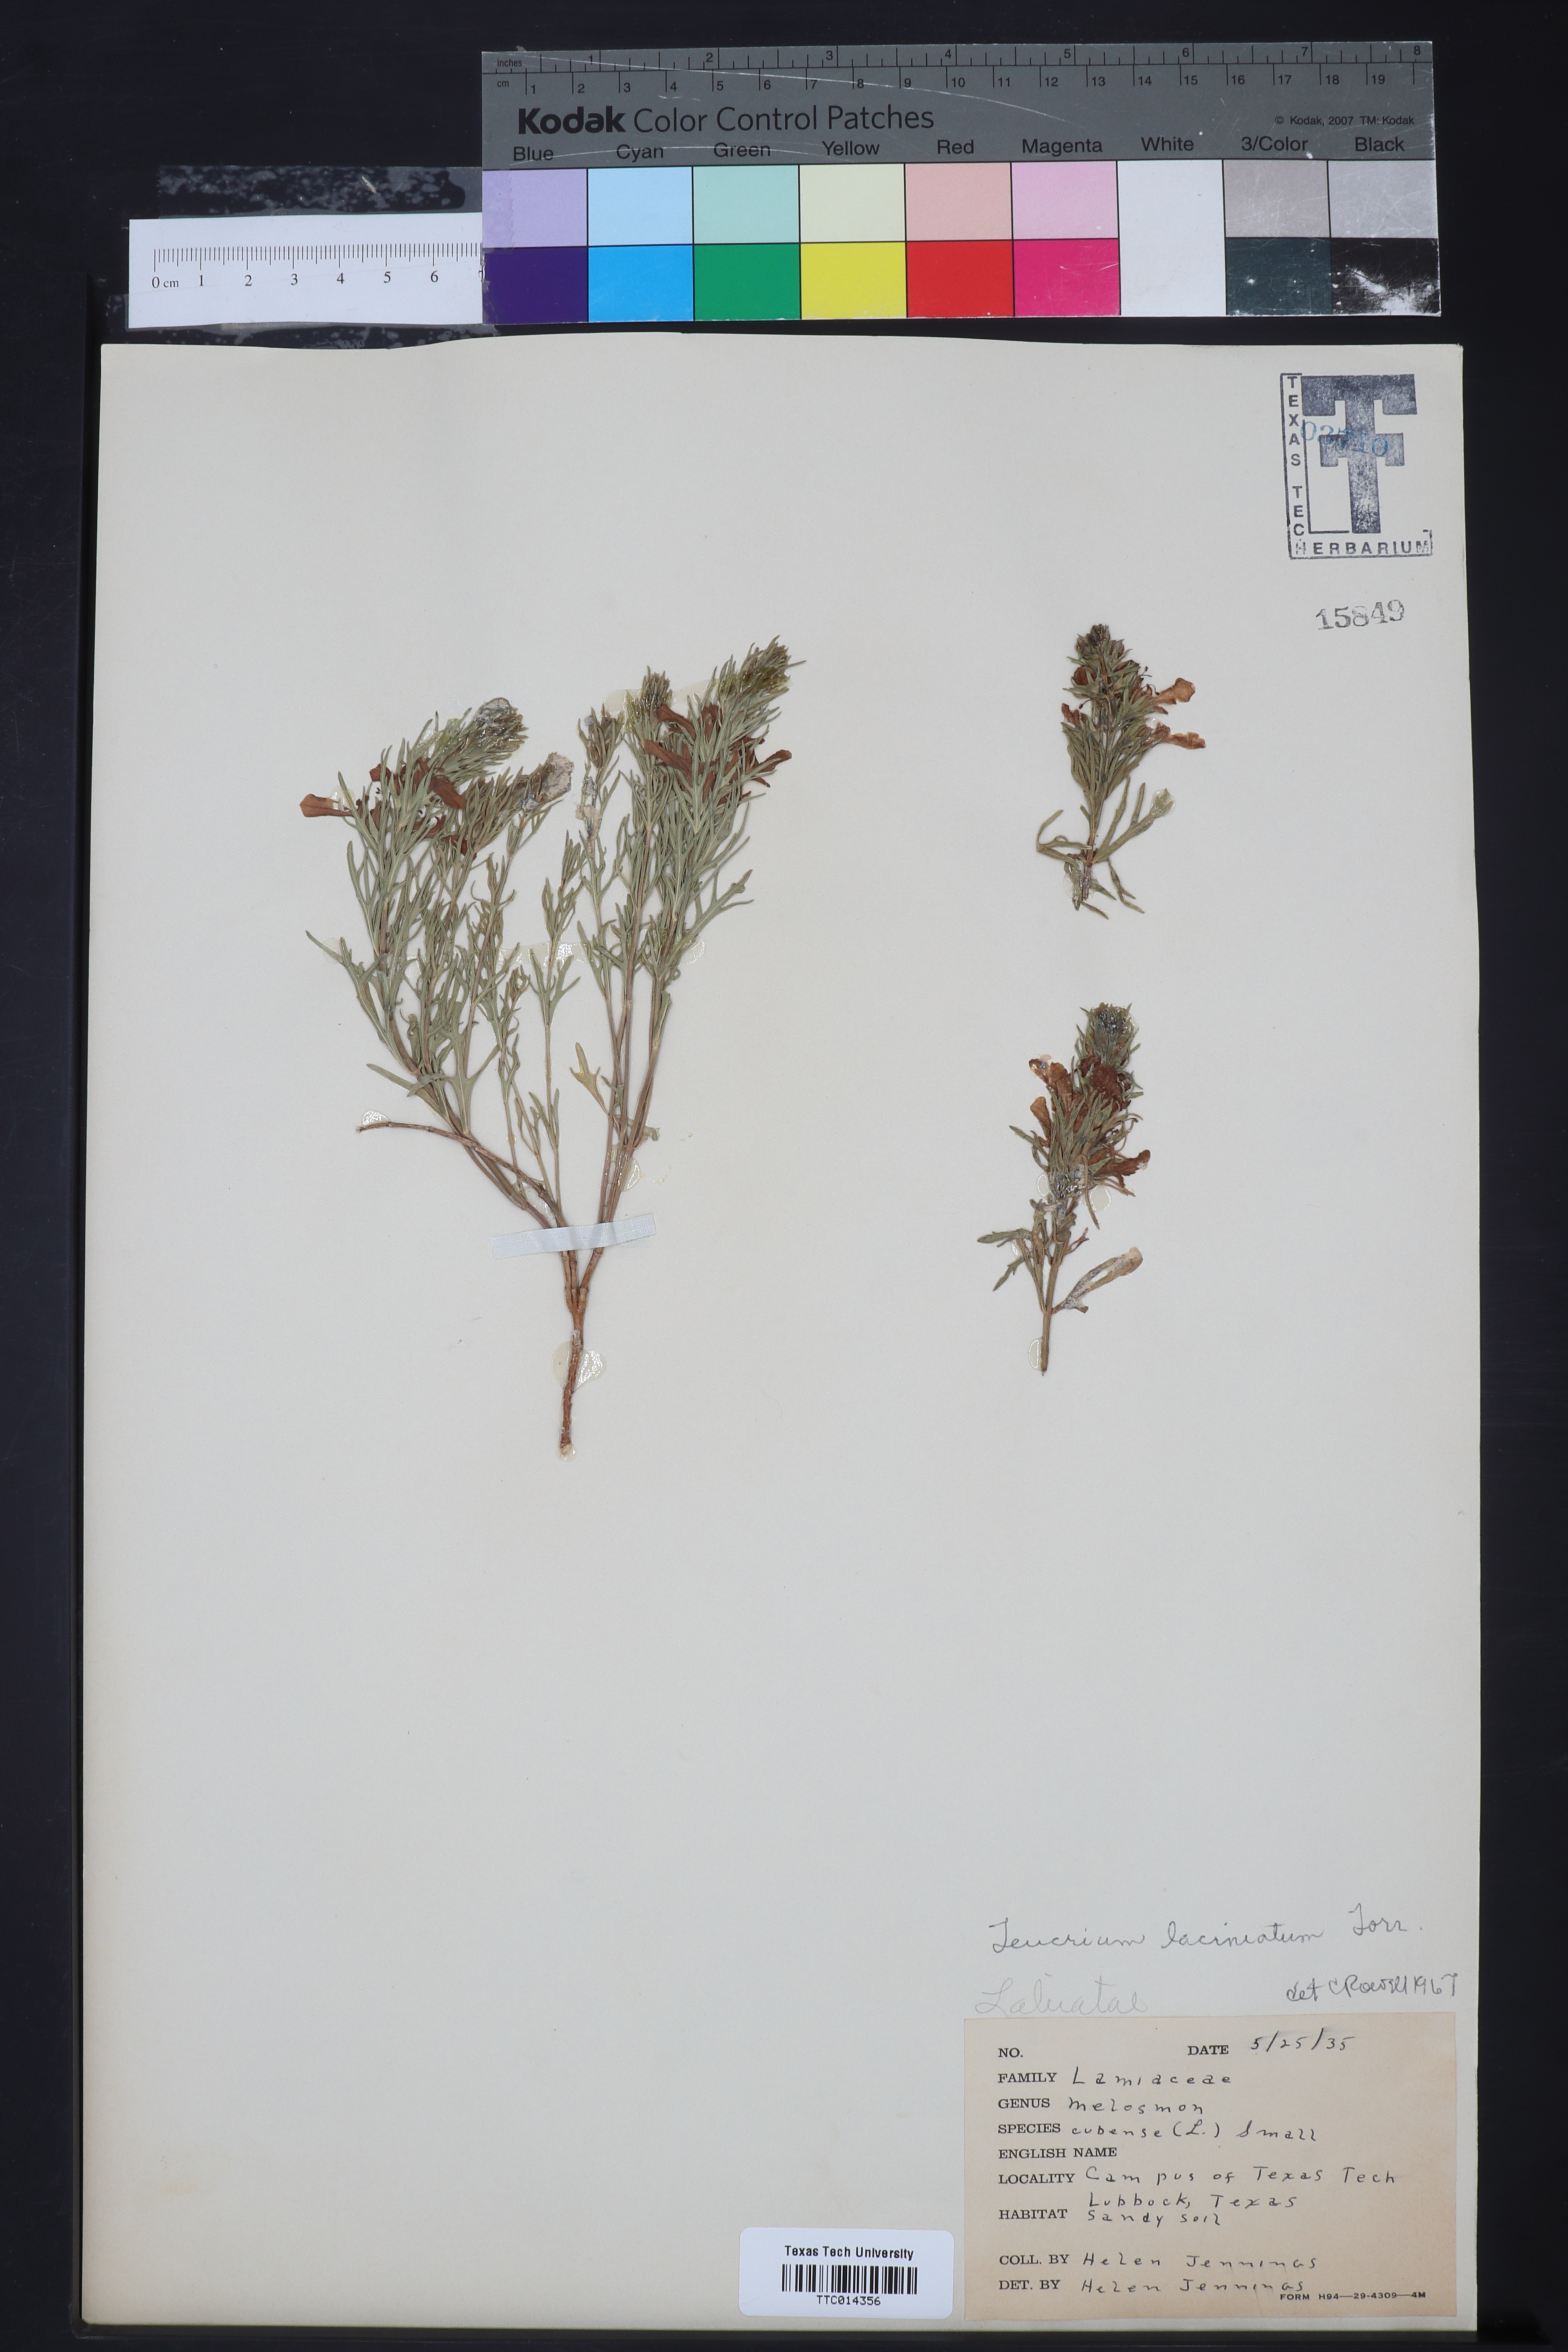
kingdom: Plantae
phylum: Tracheophyta
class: Magnoliopsida
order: Lamiales
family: Lamiaceae
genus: Teucrium
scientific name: Teucrium laciniatum
